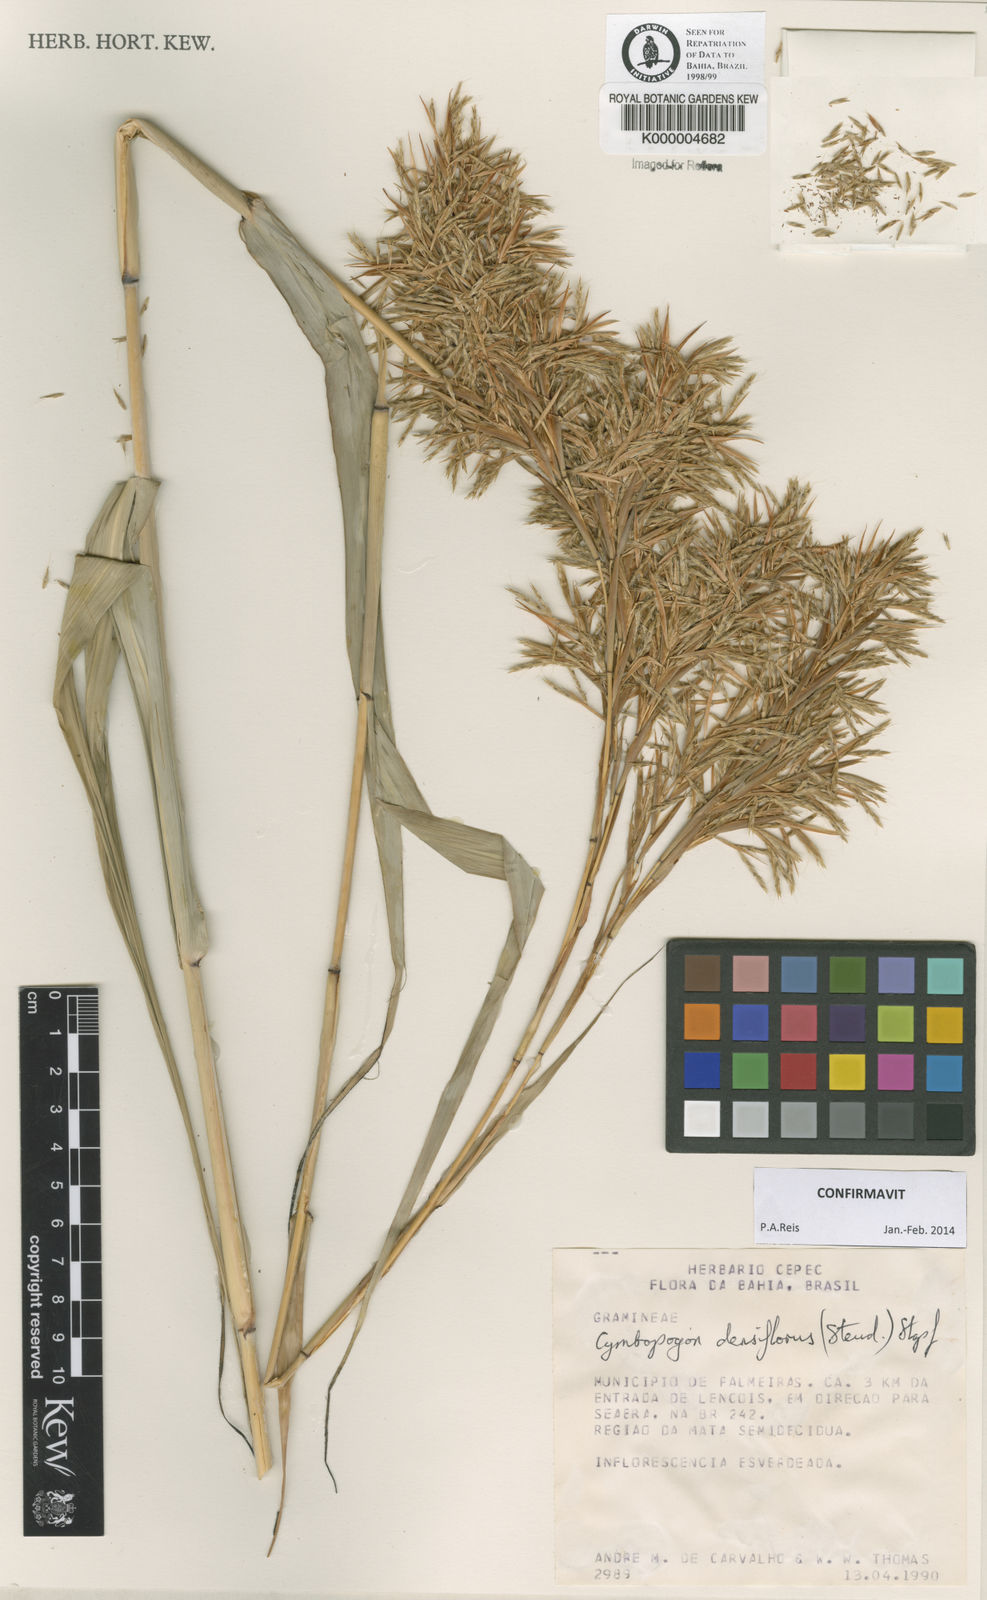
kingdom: Plantae
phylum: Tracheophyta
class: Liliopsida
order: Poales
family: Poaceae
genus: Cymbopogon
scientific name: Cymbopogon densiflorus
